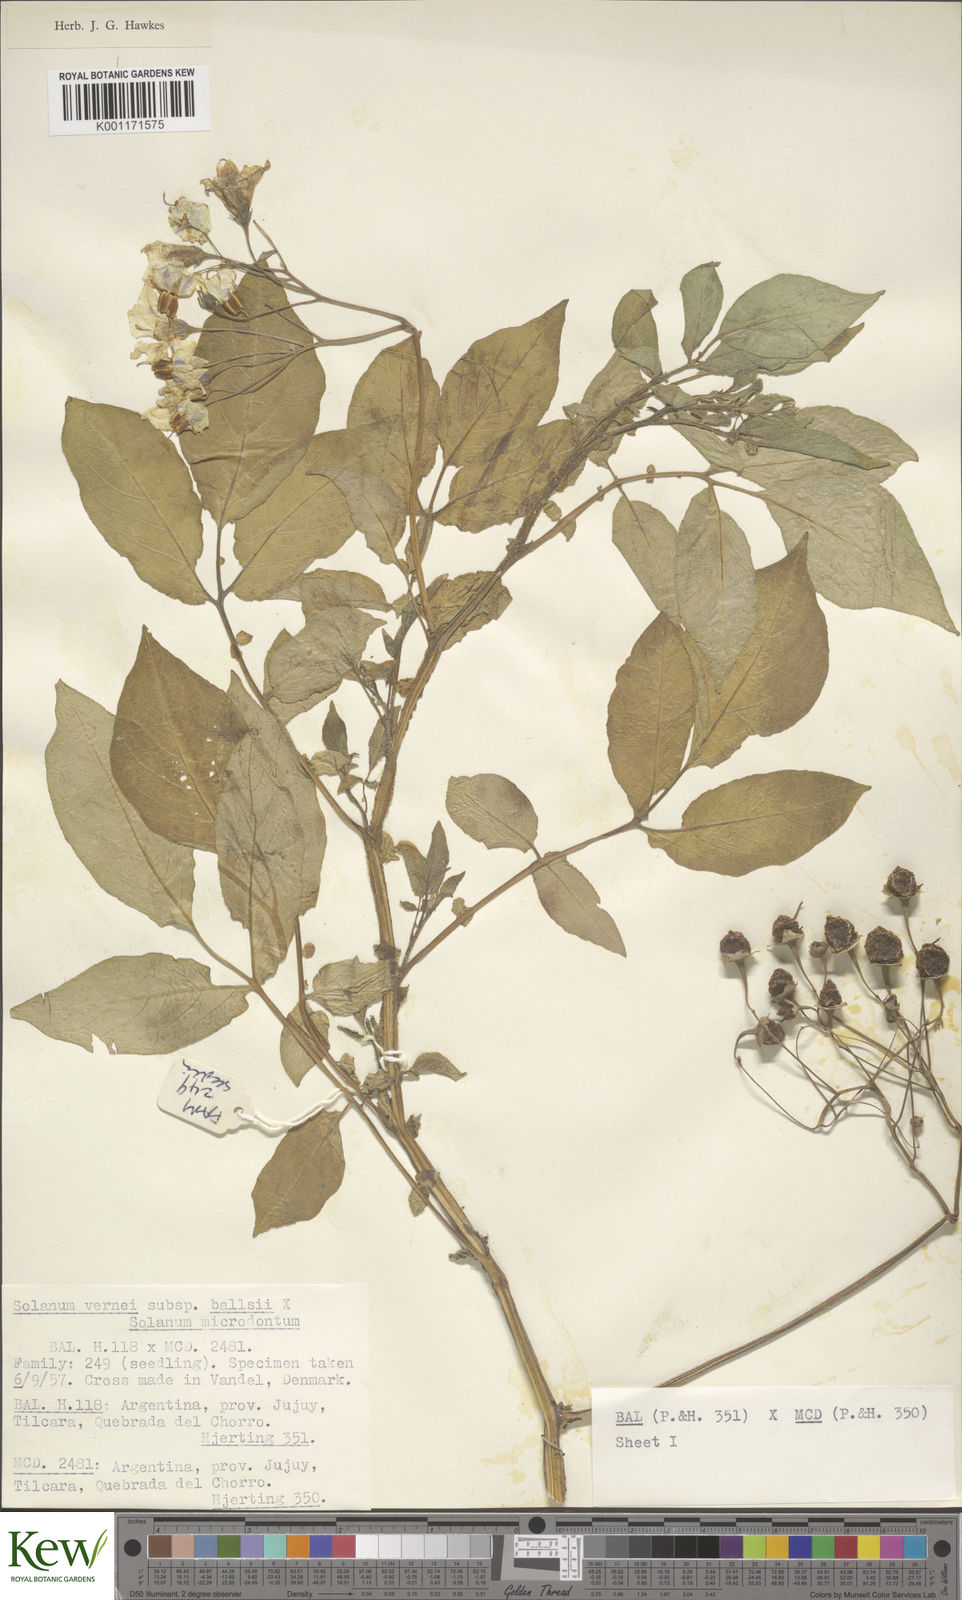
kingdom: Plantae
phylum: Tracheophyta
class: Magnoliopsida
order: Solanales
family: Solanaceae
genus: Solanum
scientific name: Solanum vernei
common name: Purple potato
